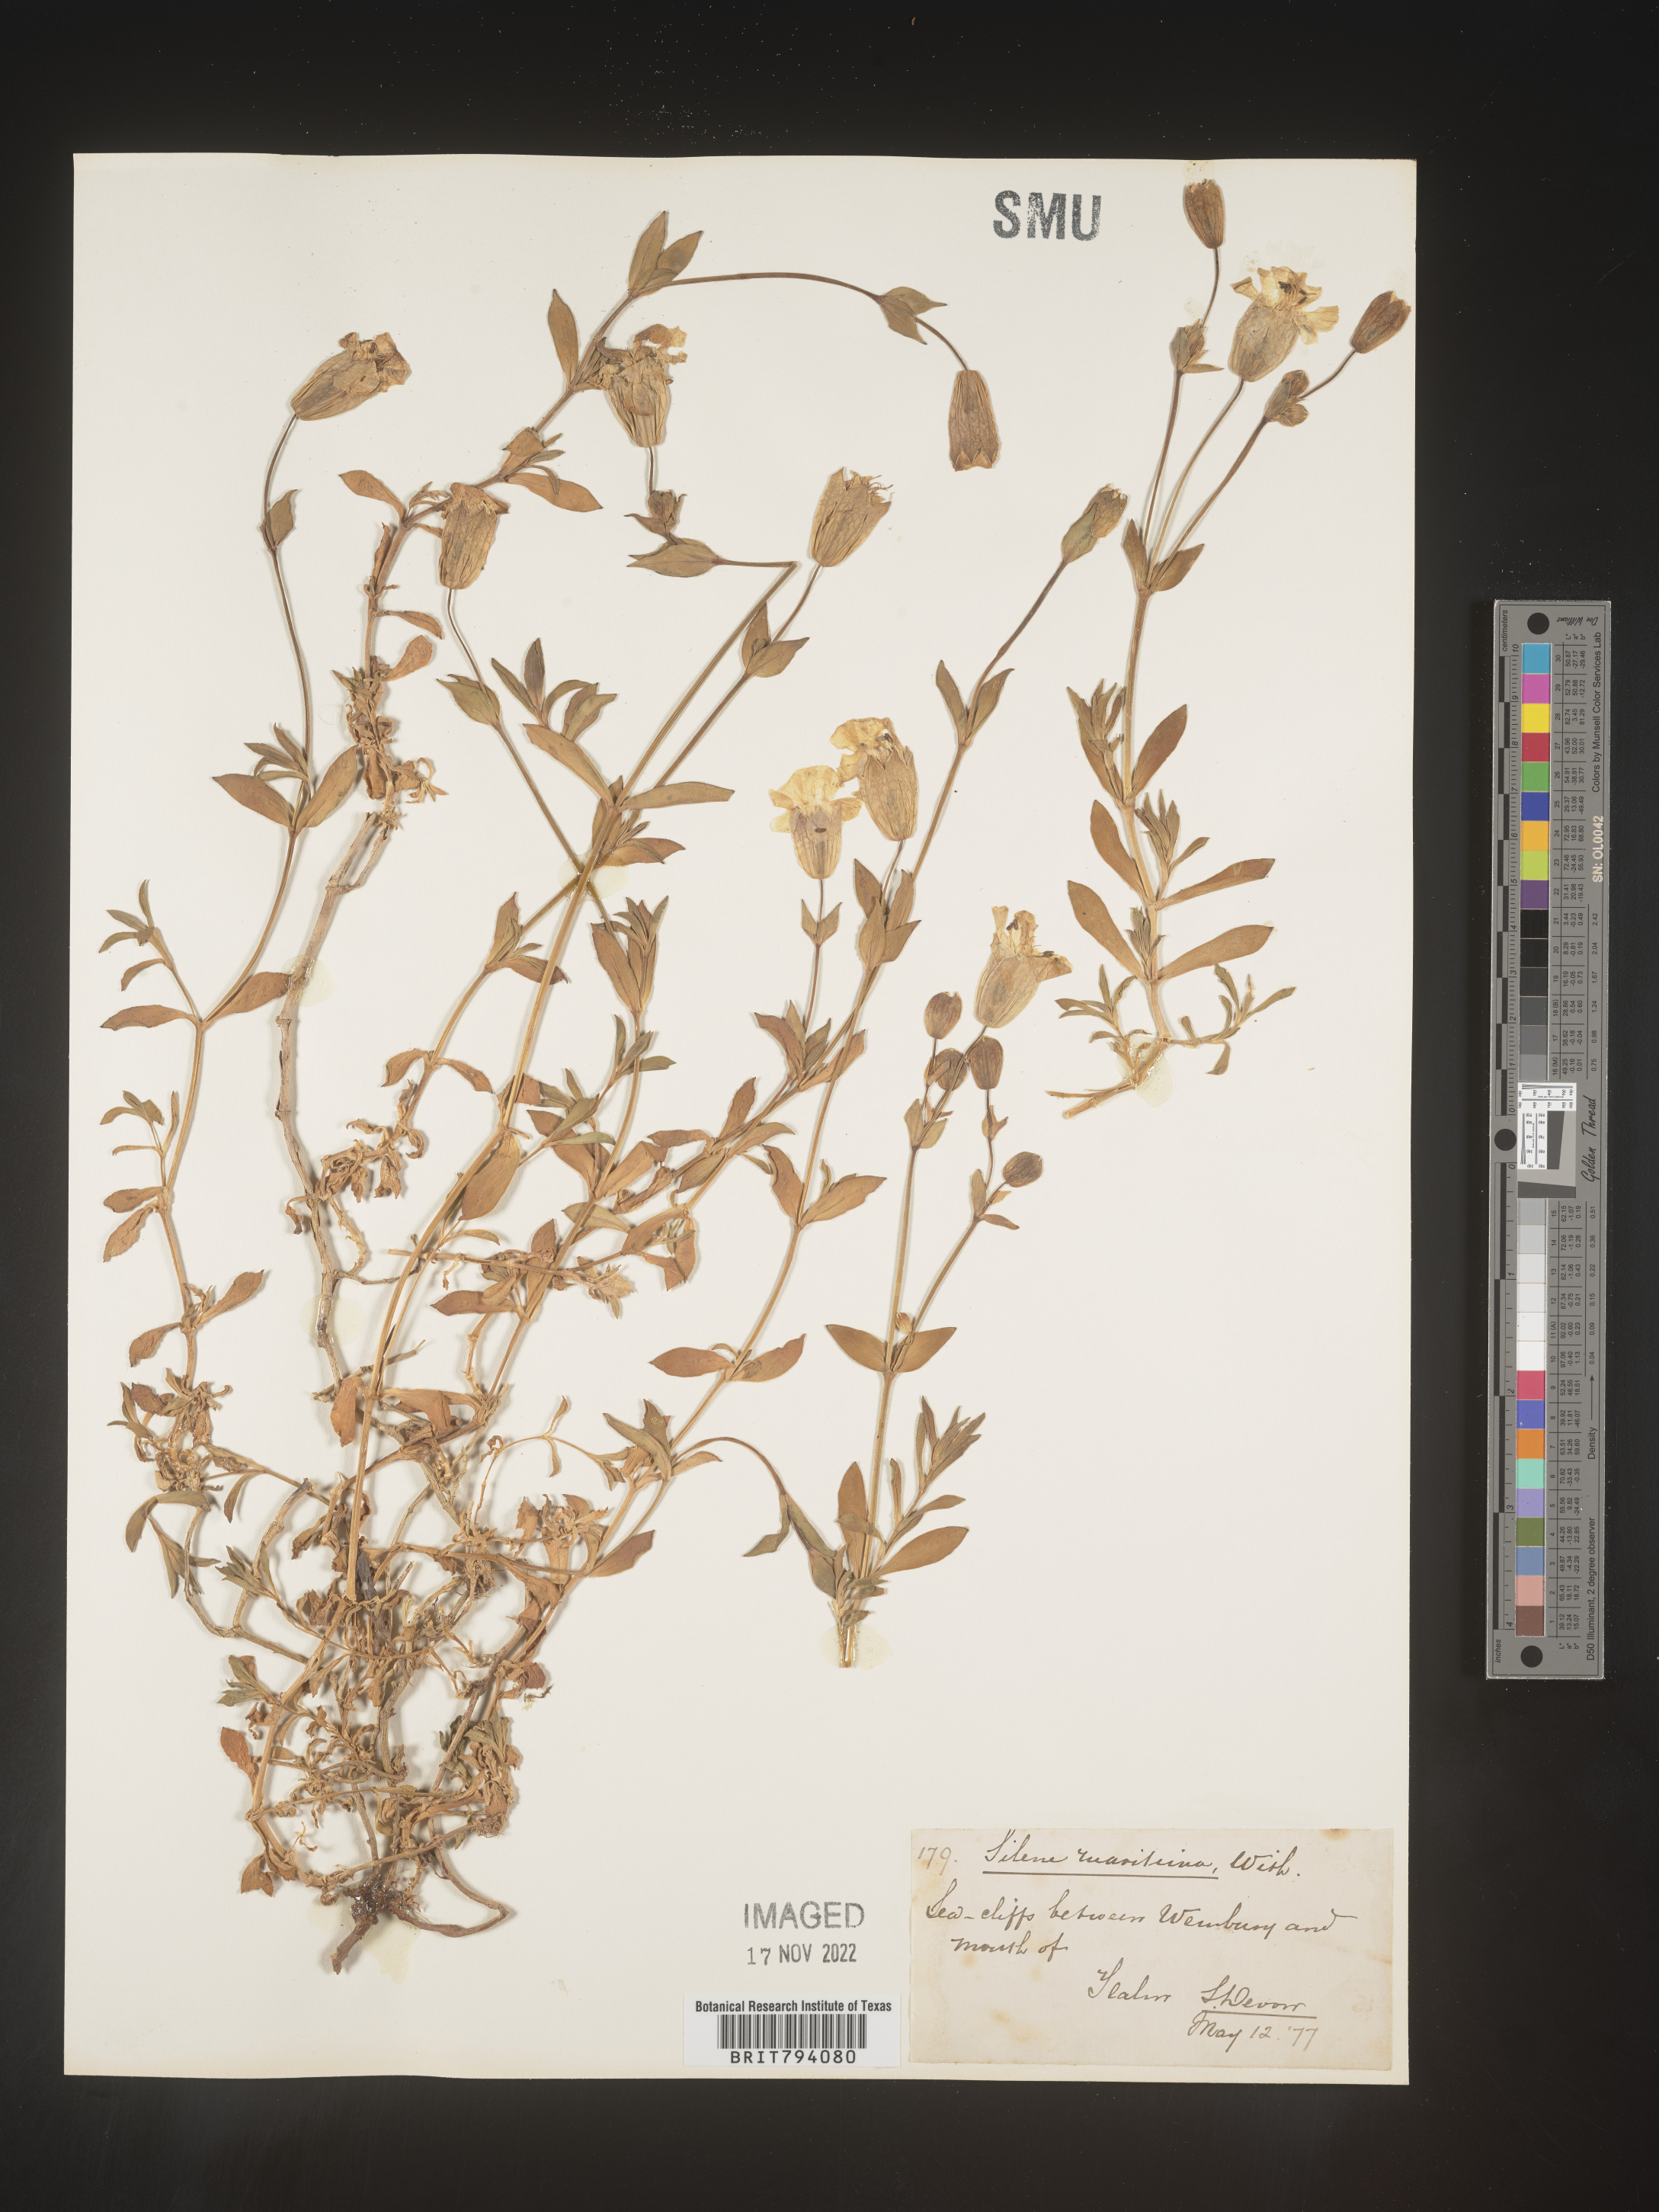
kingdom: Plantae
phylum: Tracheophyta
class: Magnoliopsida
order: Caryophyllales
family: Caryophyllaceae
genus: Silene
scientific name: Silene uniflora
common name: Sea campion
